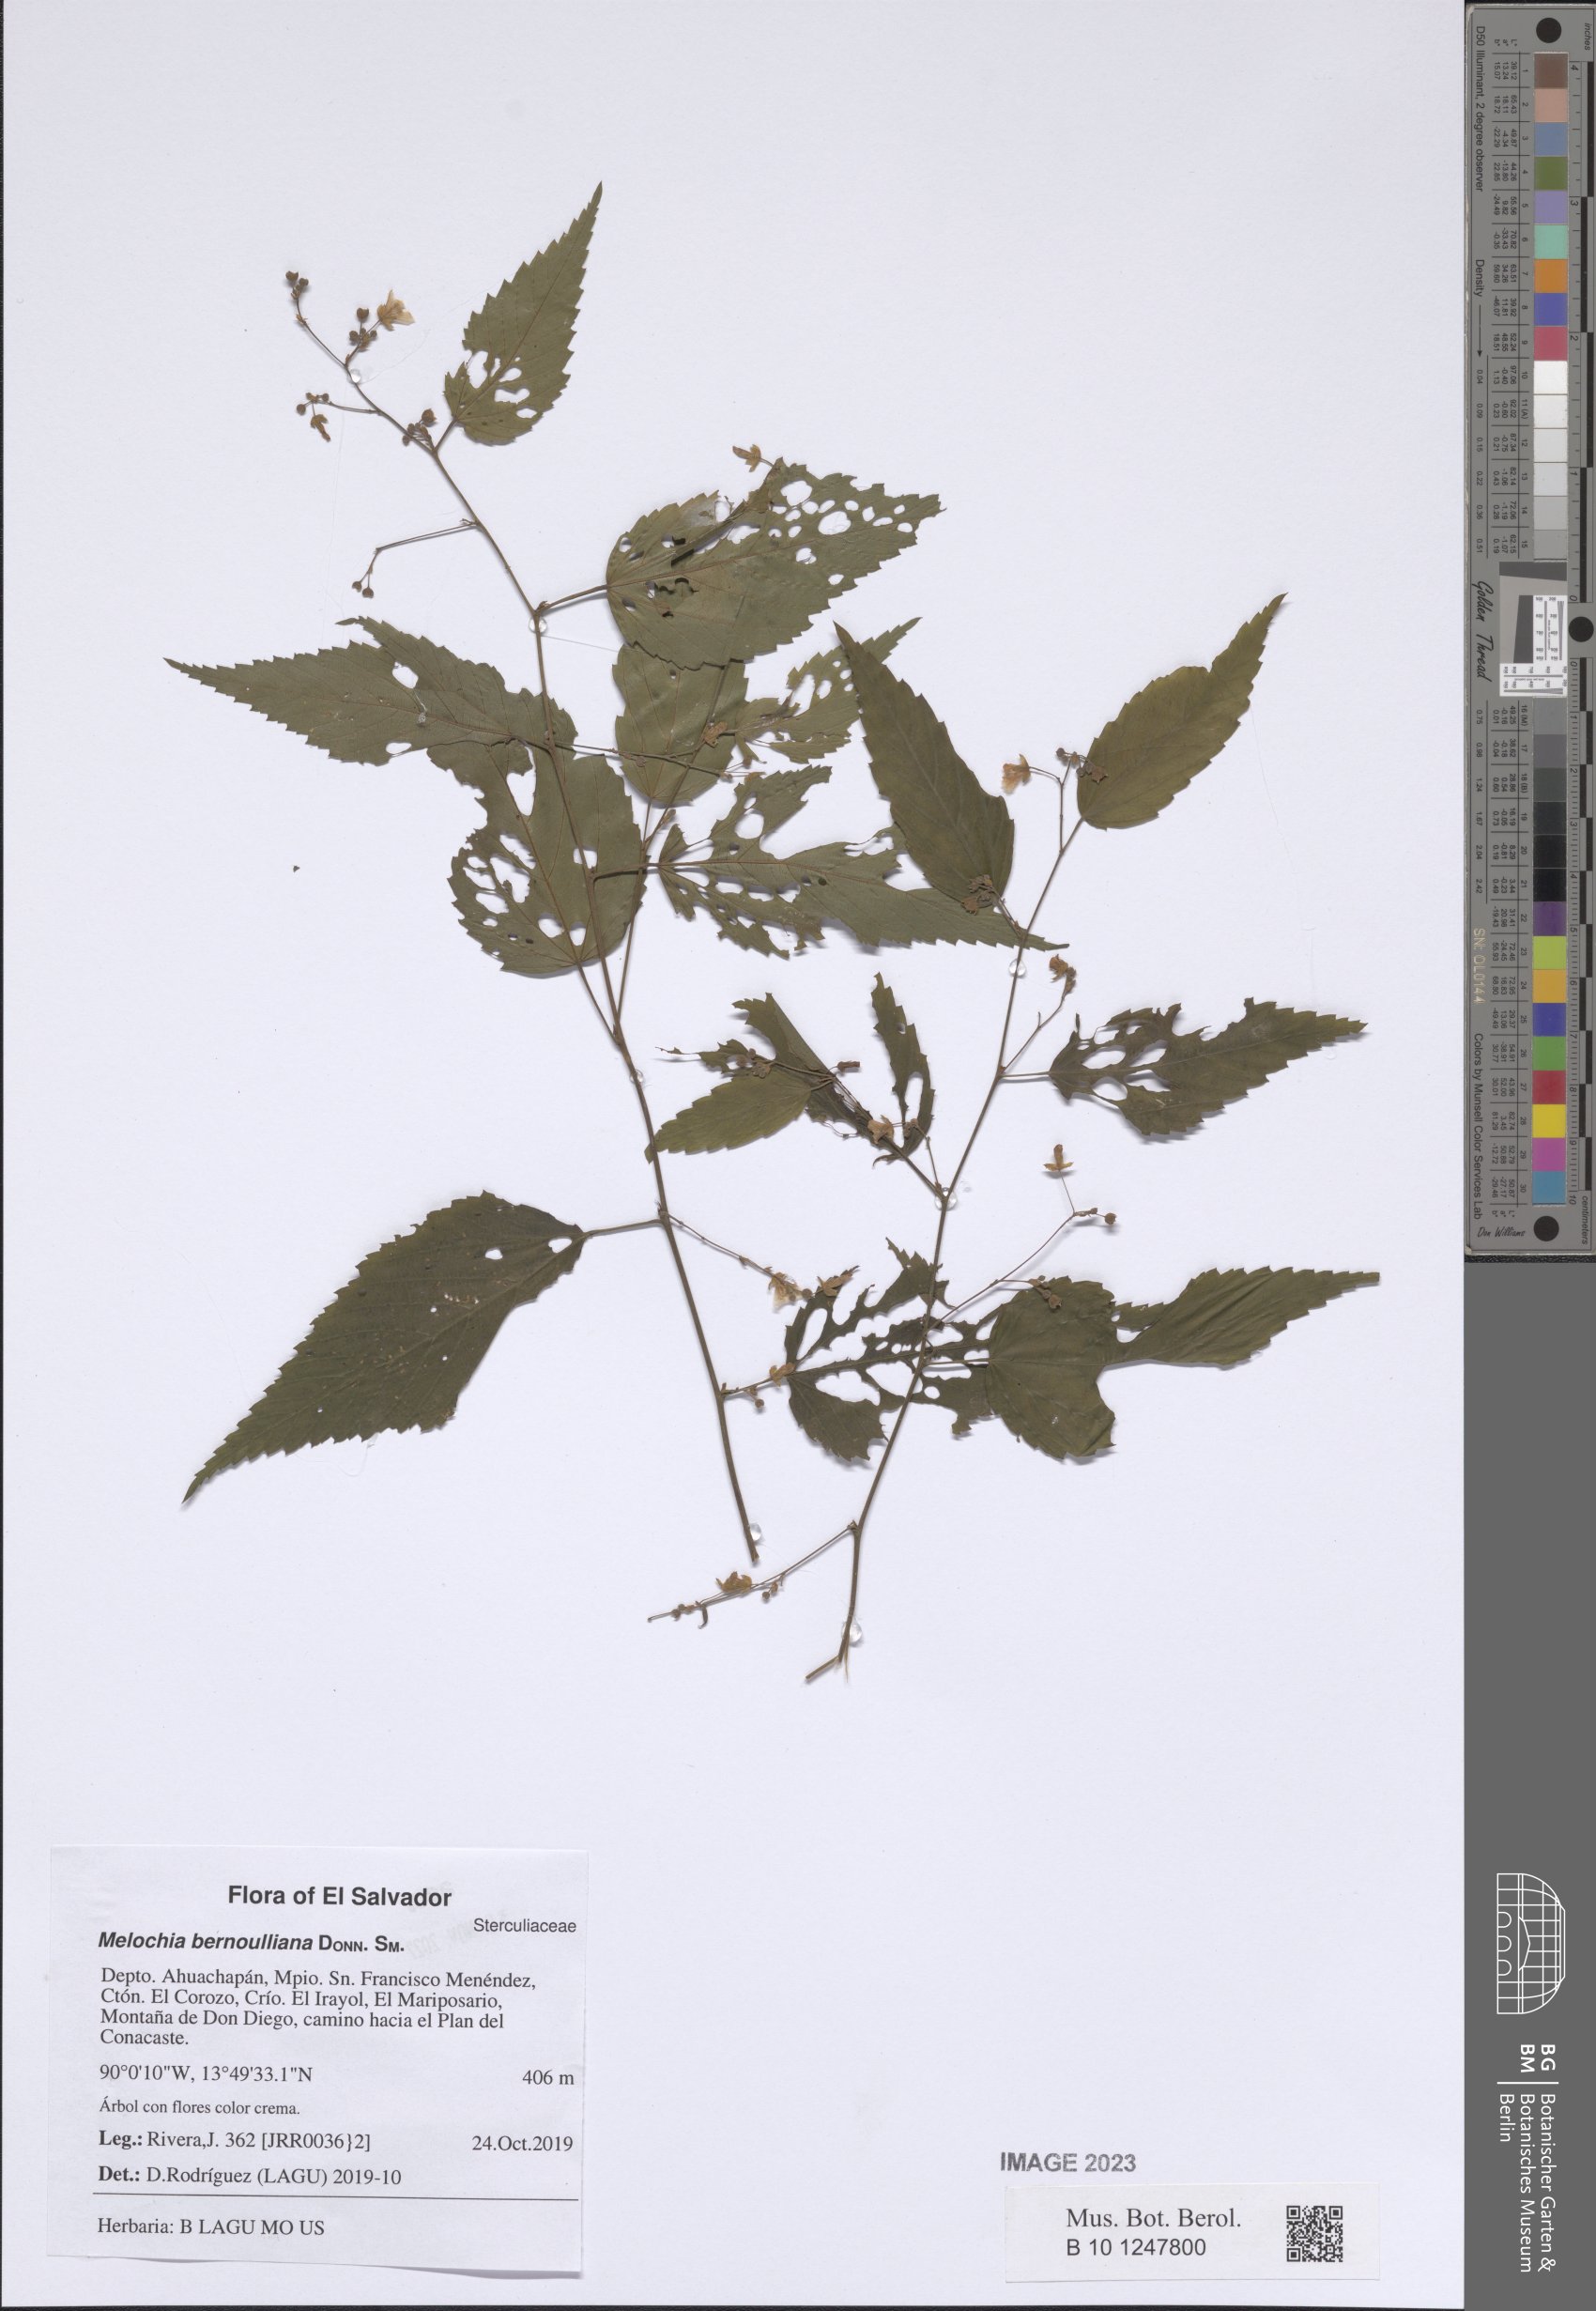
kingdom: Plantae
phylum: Tracheophyta
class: Magnoliopsida
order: Malvales
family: Malvaceae
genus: Melochia
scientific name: Melochia bernoulliana
